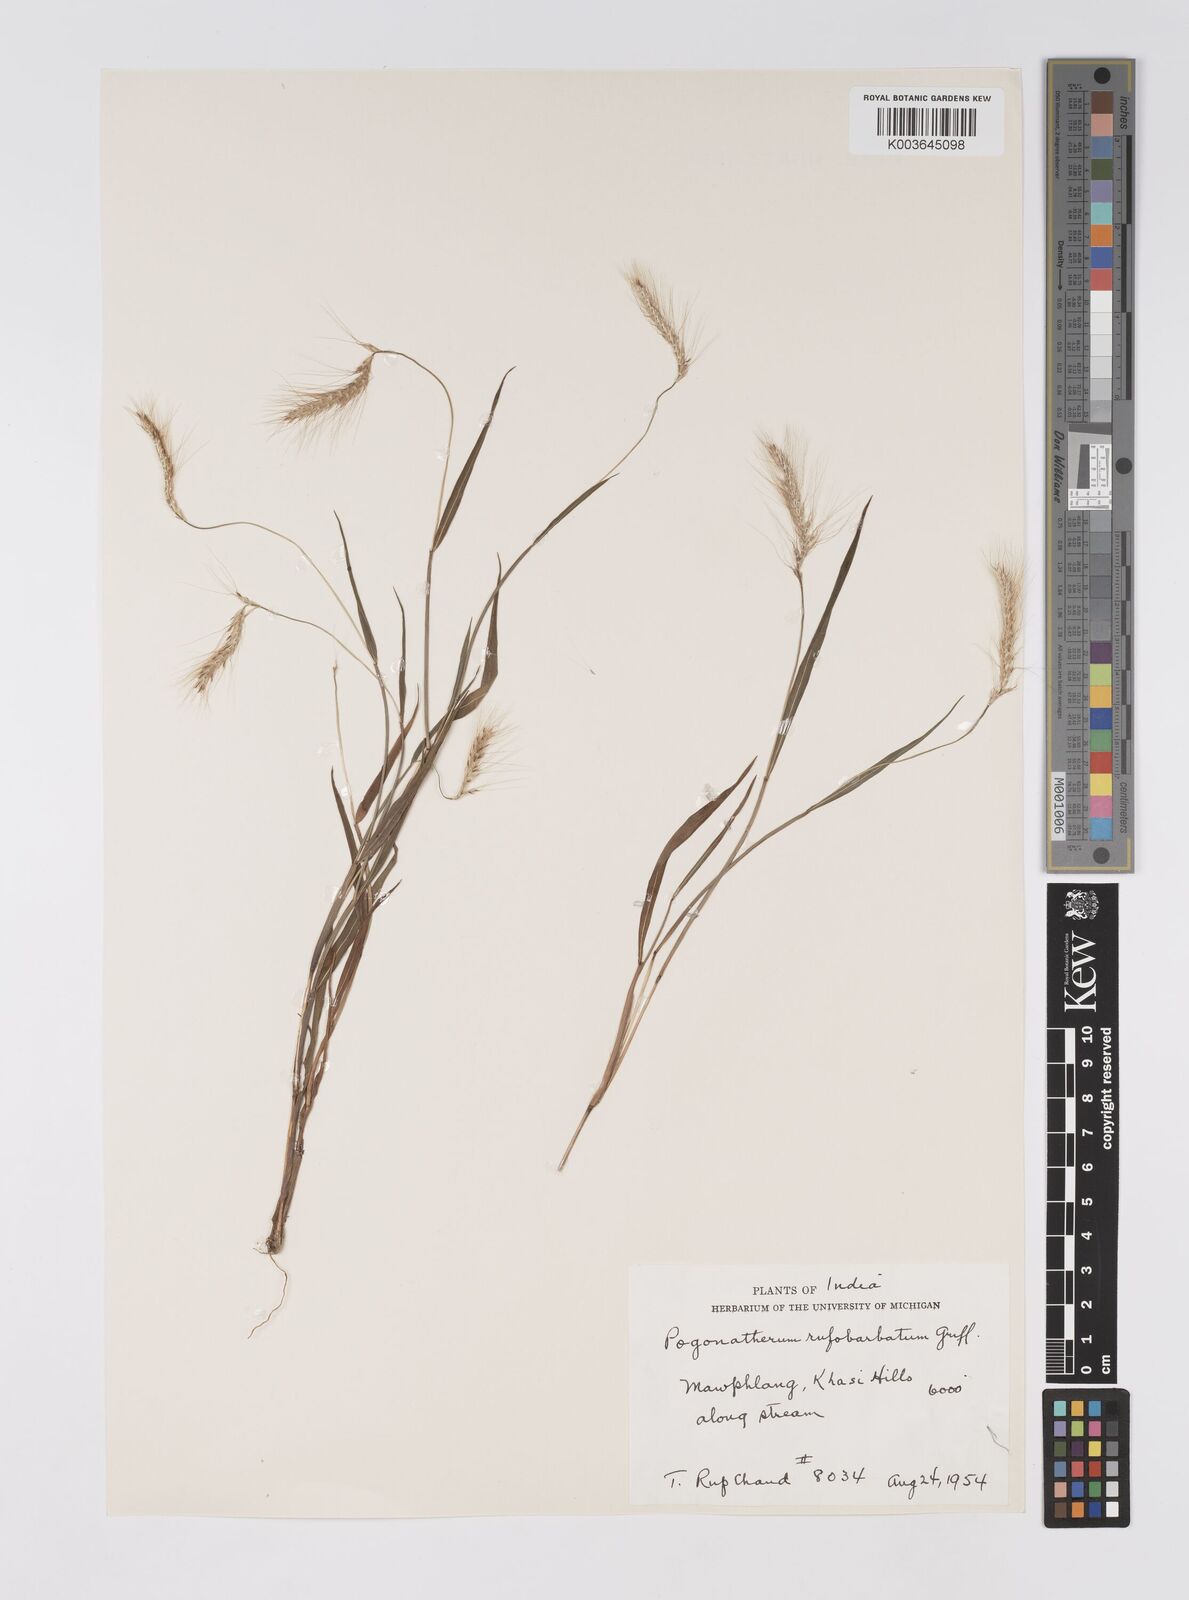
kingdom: Plantae
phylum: Tracheophyta
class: Liliopsida
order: Poales
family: Poaceae
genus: Pogonatherum
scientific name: Pogonatherum rufobarbatum
